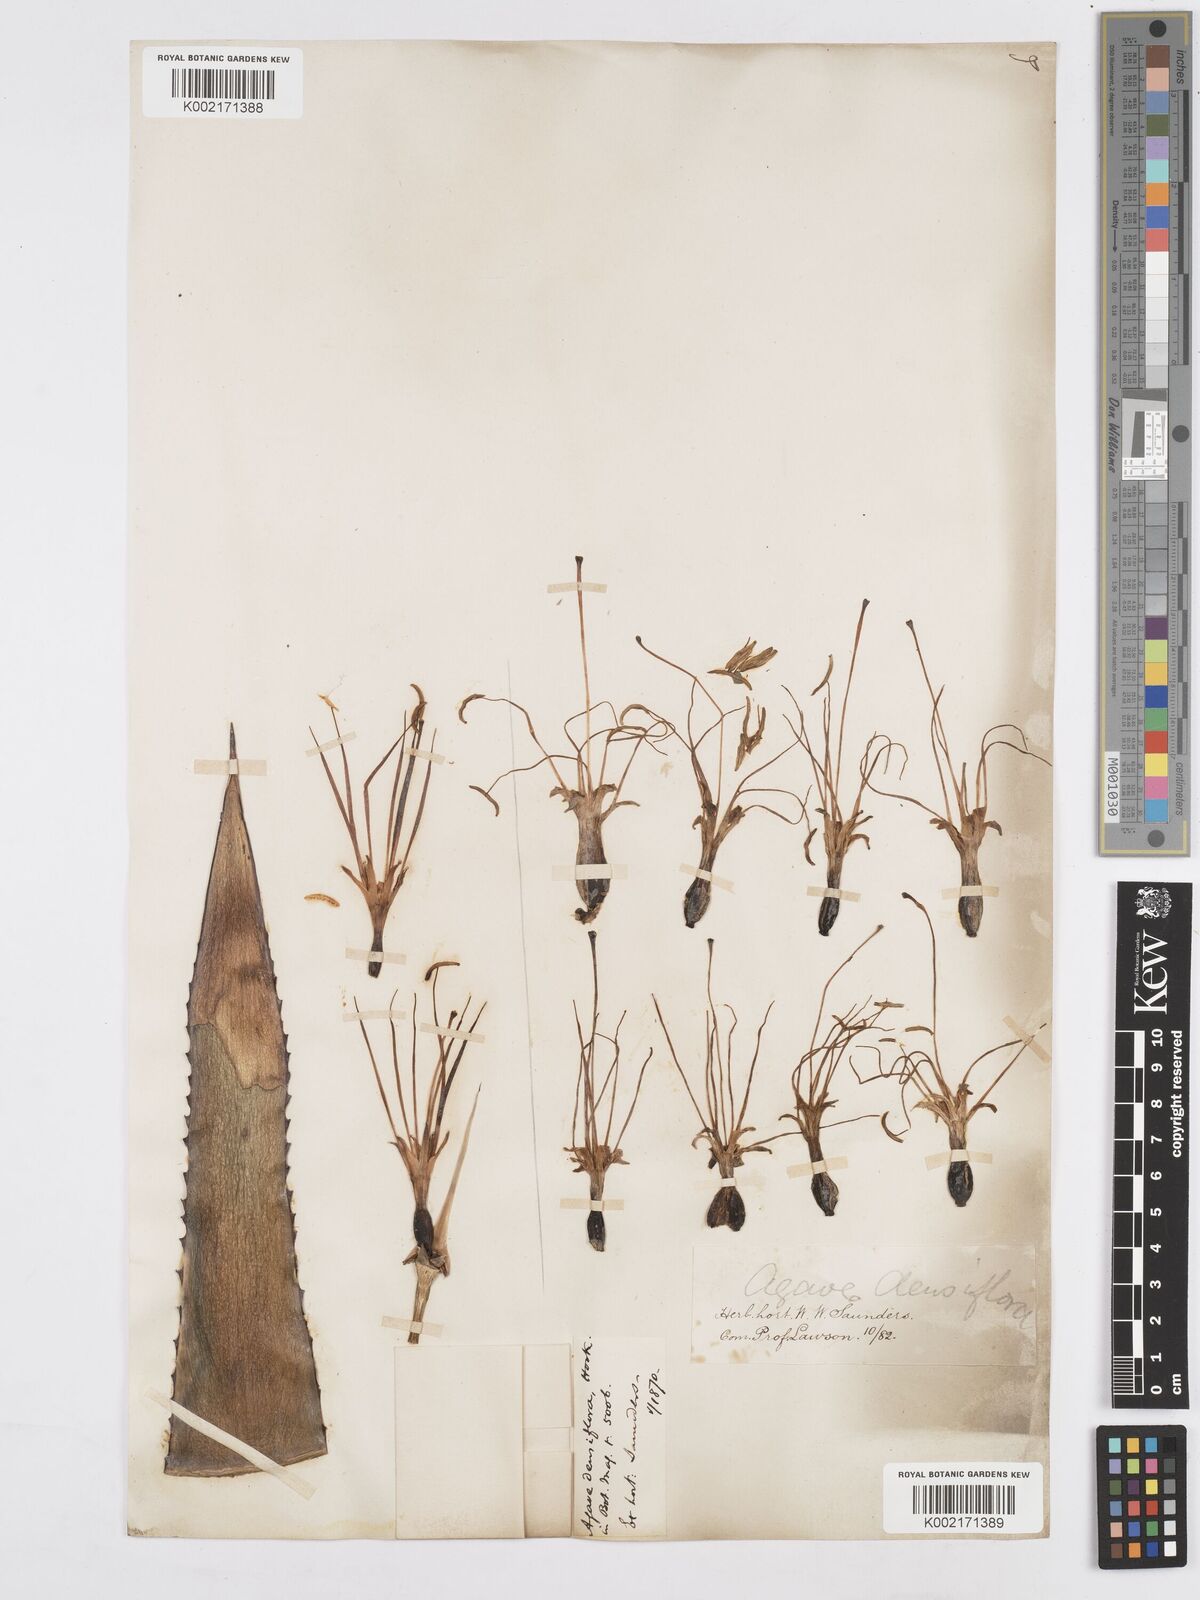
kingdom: Plantae
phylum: Tracheophyta
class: Liliopsida
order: Asparagales
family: Asparagaceae
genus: Agave
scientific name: Agave polyacantha
